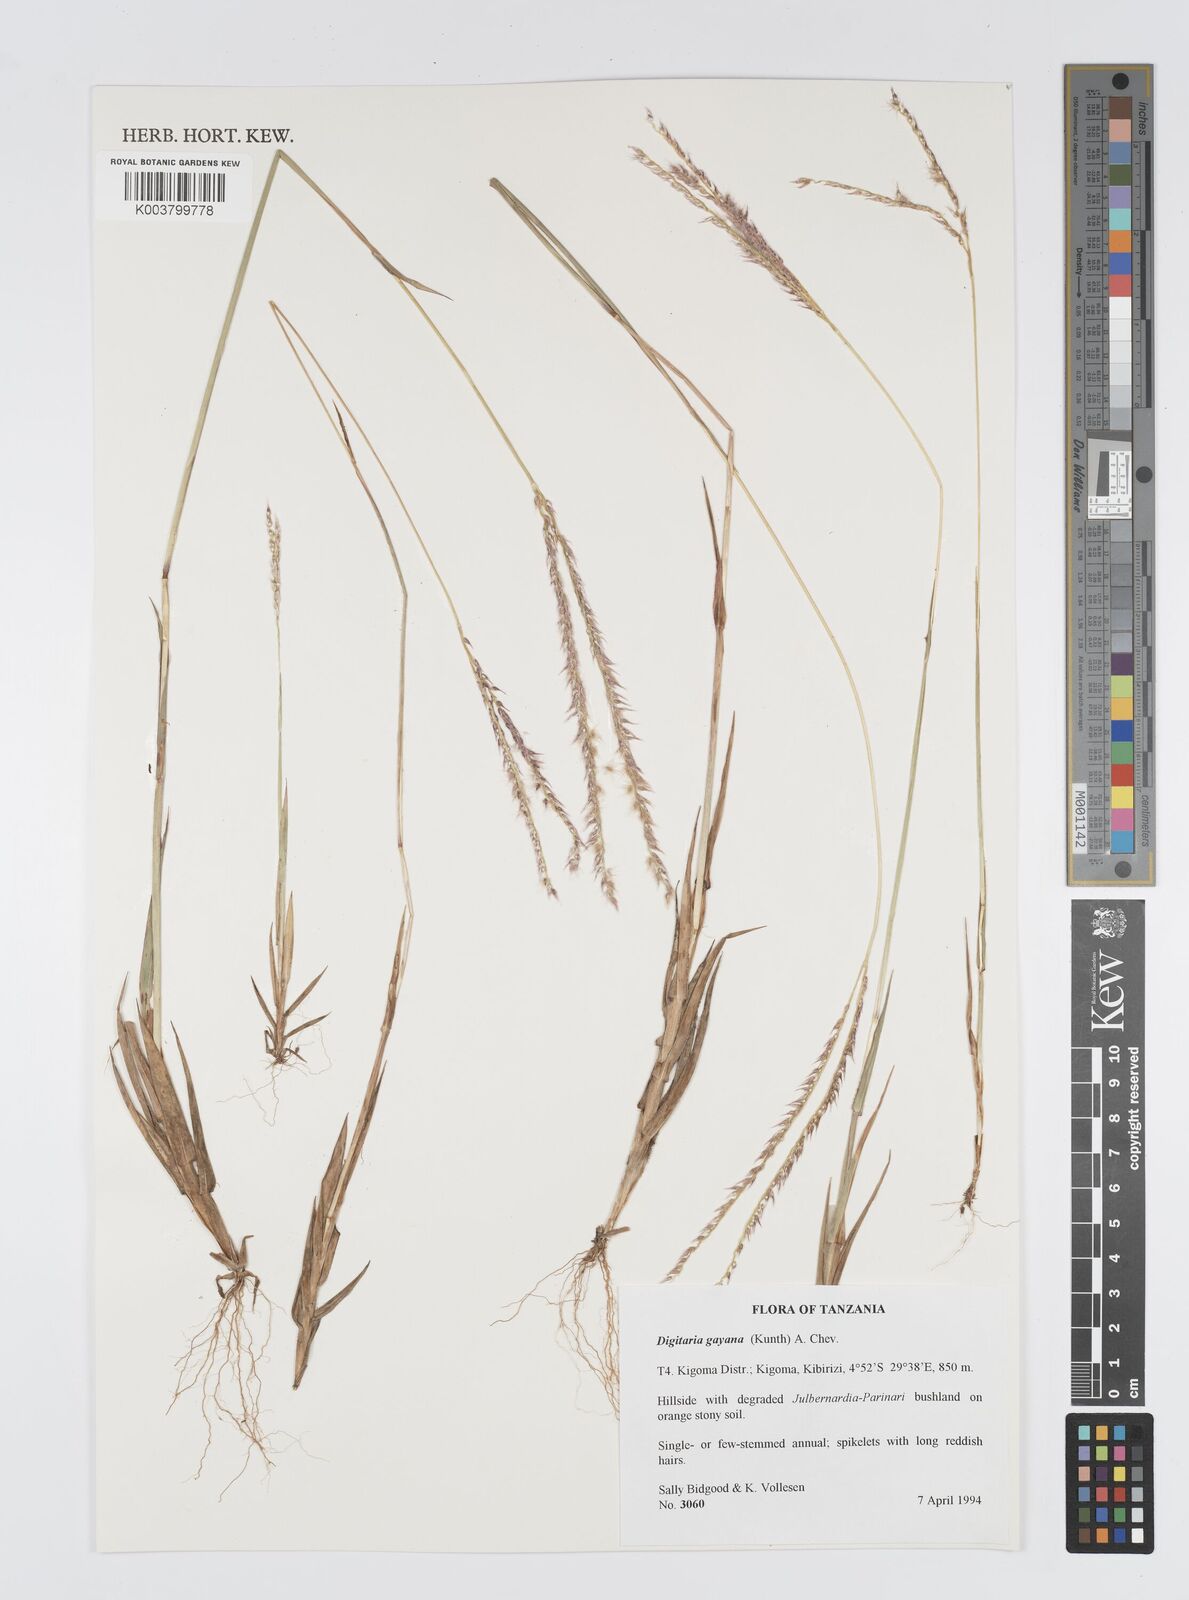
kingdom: Plantae
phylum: Tracheophyta
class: Liliopsida
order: Poales
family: Poaceae
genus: Digitaria
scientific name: Digitaria gayana
